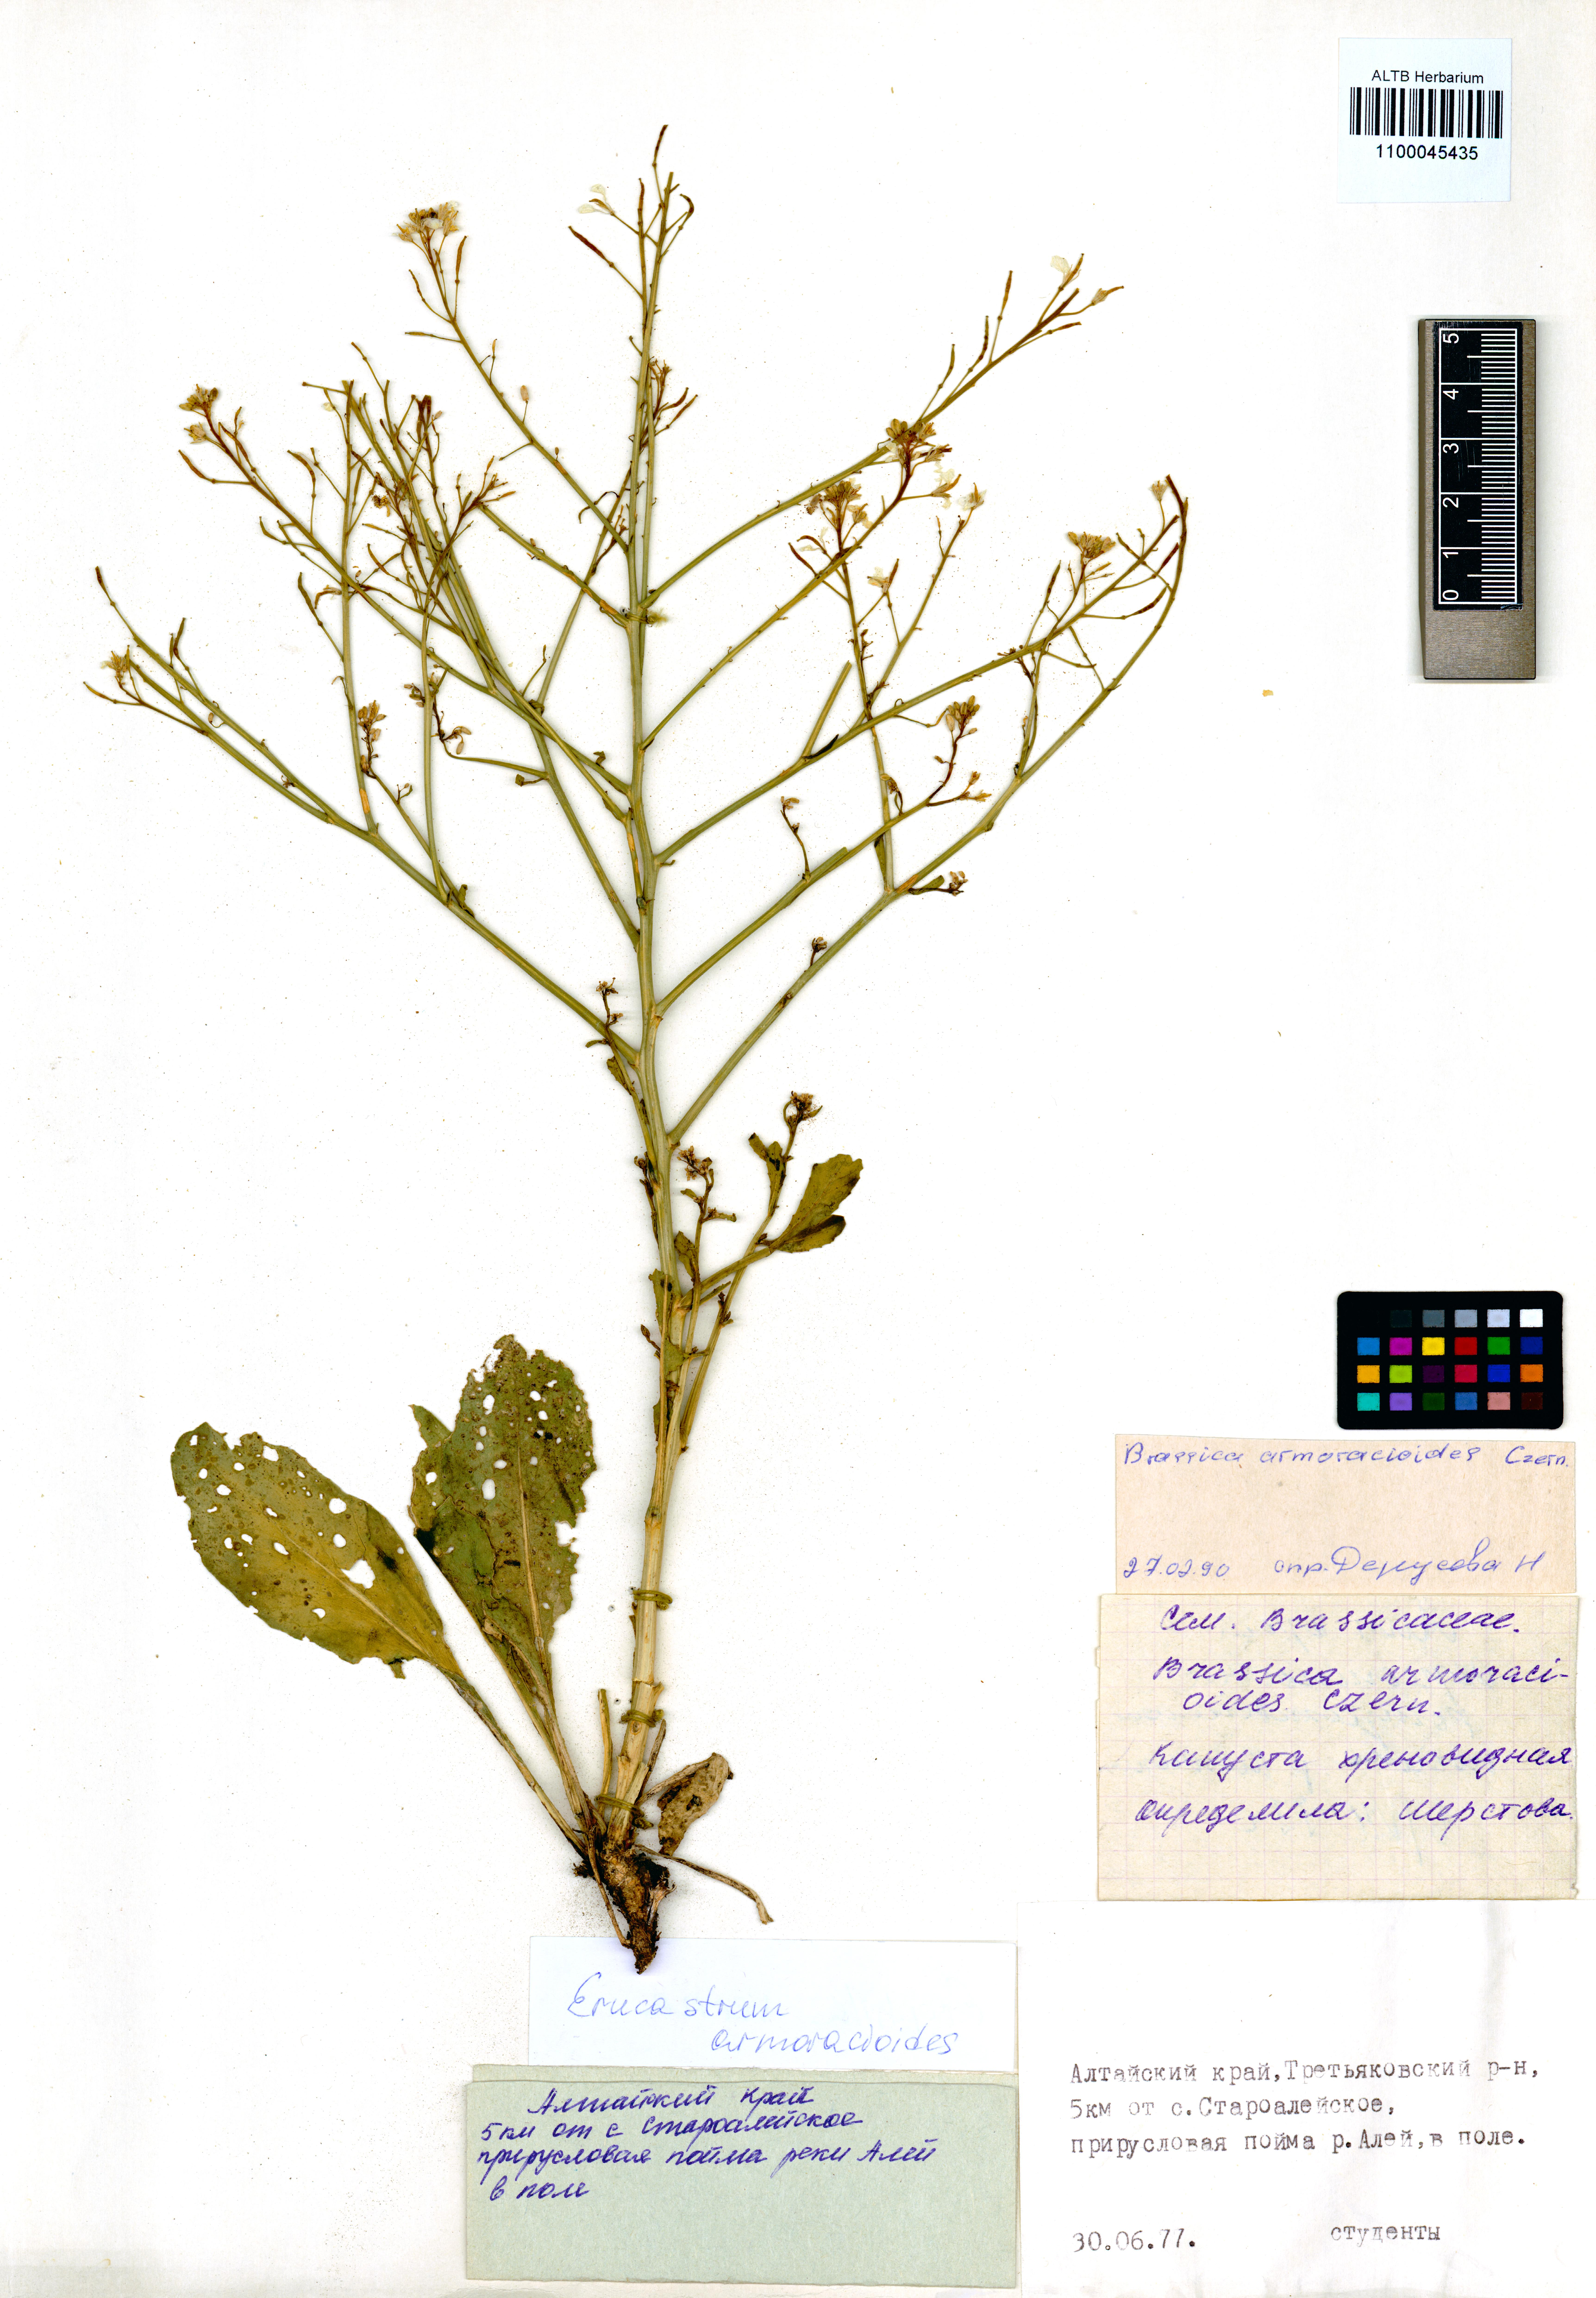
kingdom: Plantae
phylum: Tracheophyta
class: Magnoliopsida
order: Brassicales
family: Brassicaceae
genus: Brassica
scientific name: Brassica elongata
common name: Long-stalked rape
